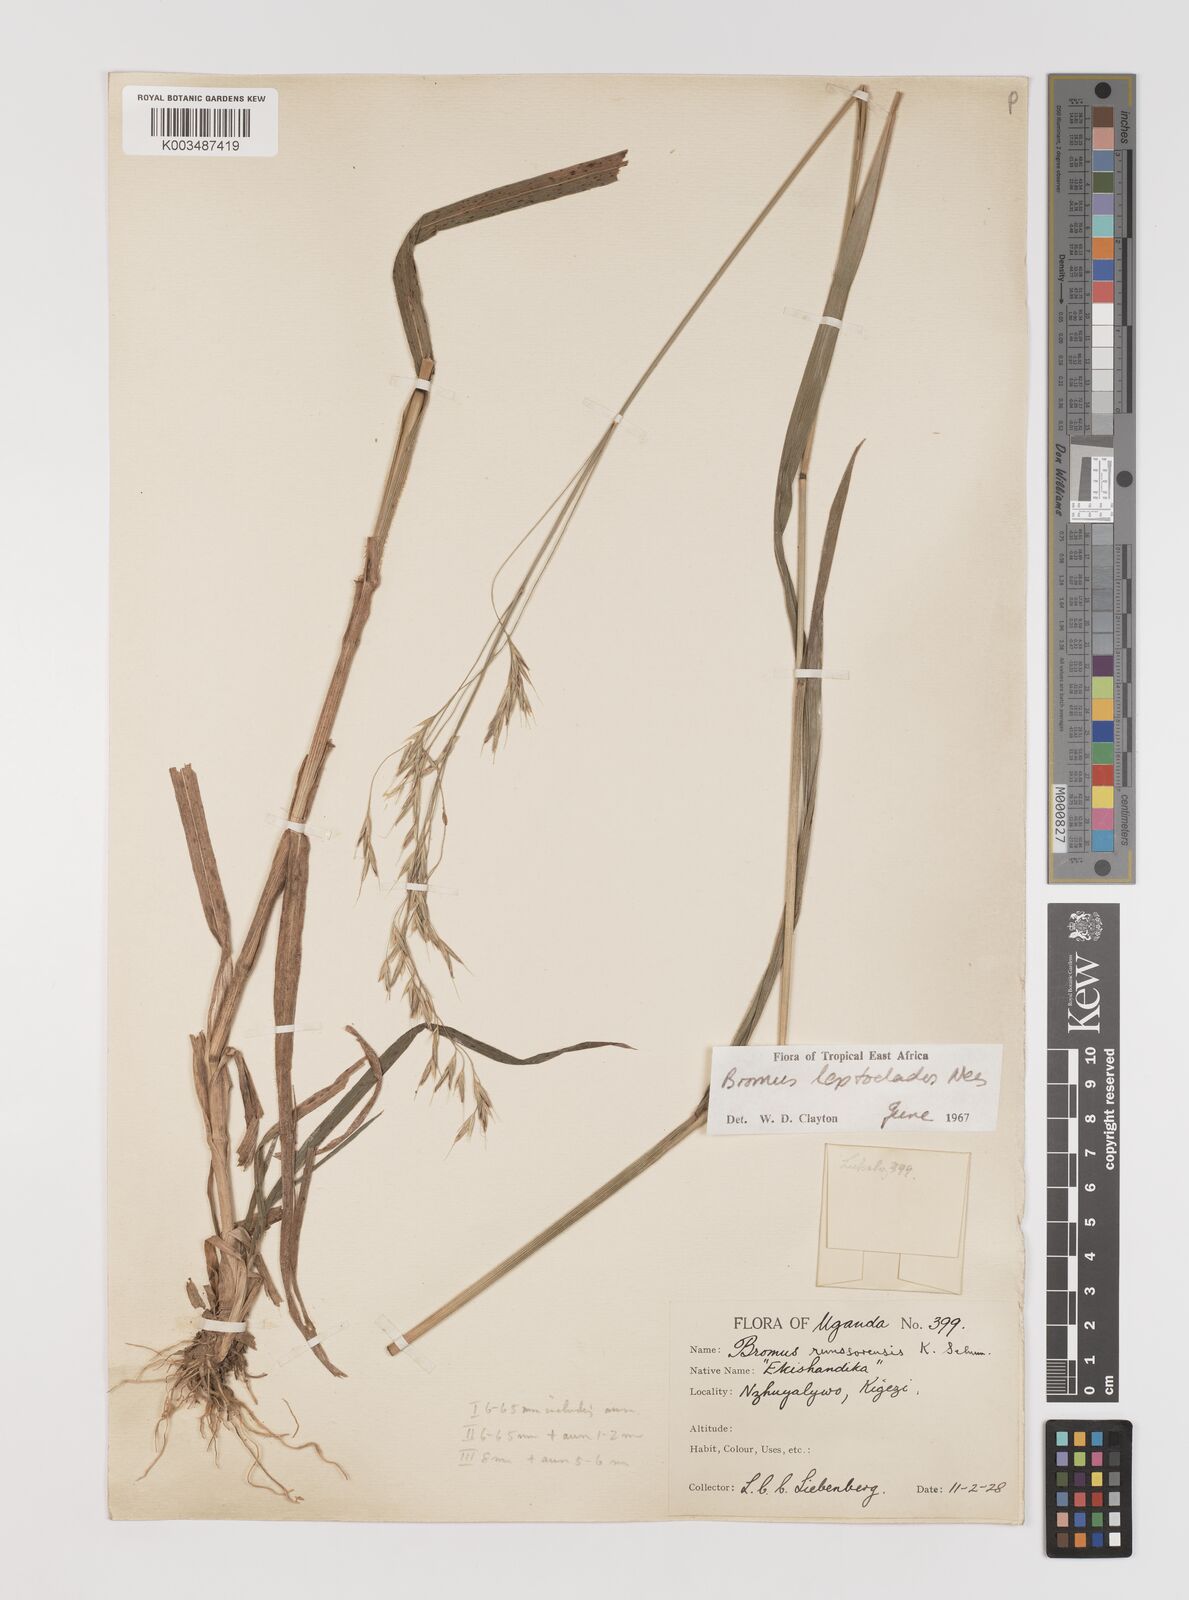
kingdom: Plantae
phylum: Tracheophyta
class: Liliopsida
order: Poales
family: Poaceae
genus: Bromus
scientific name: Bromus leptoclados
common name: Mountain bromegrass
